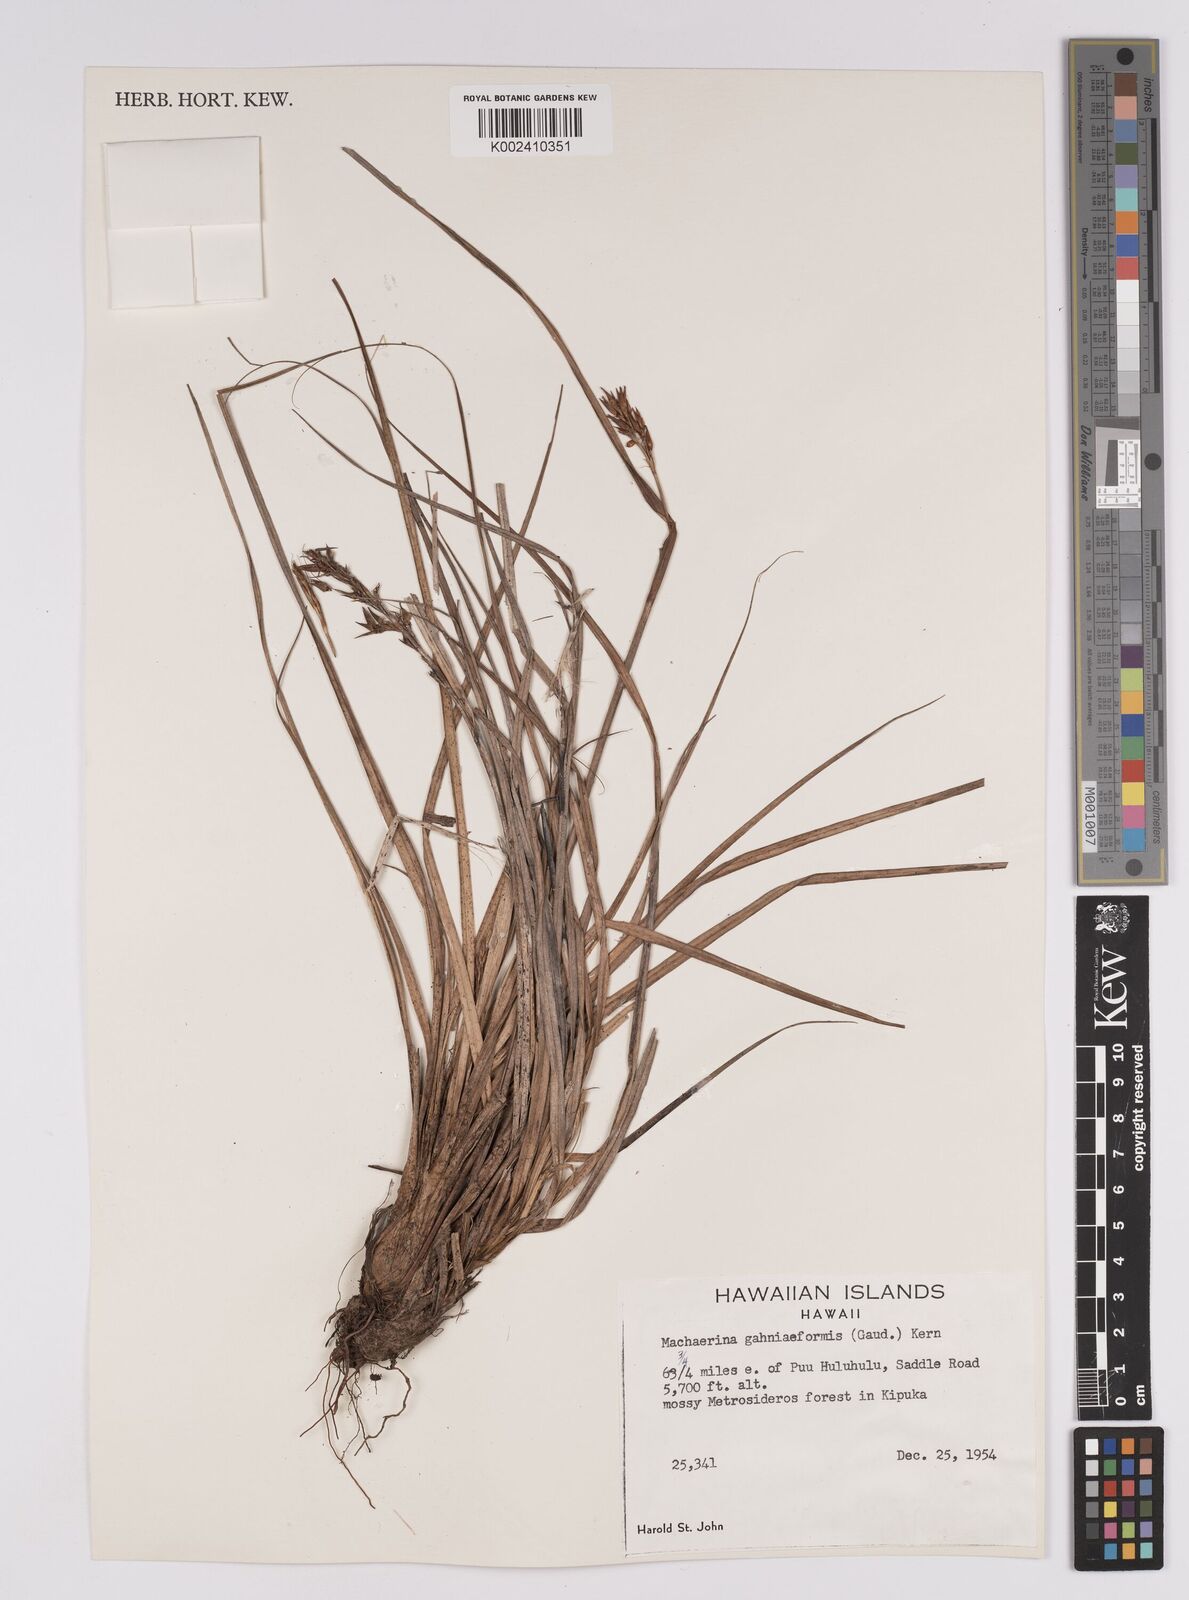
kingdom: Plantae
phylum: Tracheophyta
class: Liliopsida
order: Poales
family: Cyperaceae
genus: Morelotia
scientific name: Morelotia gahniiformis
